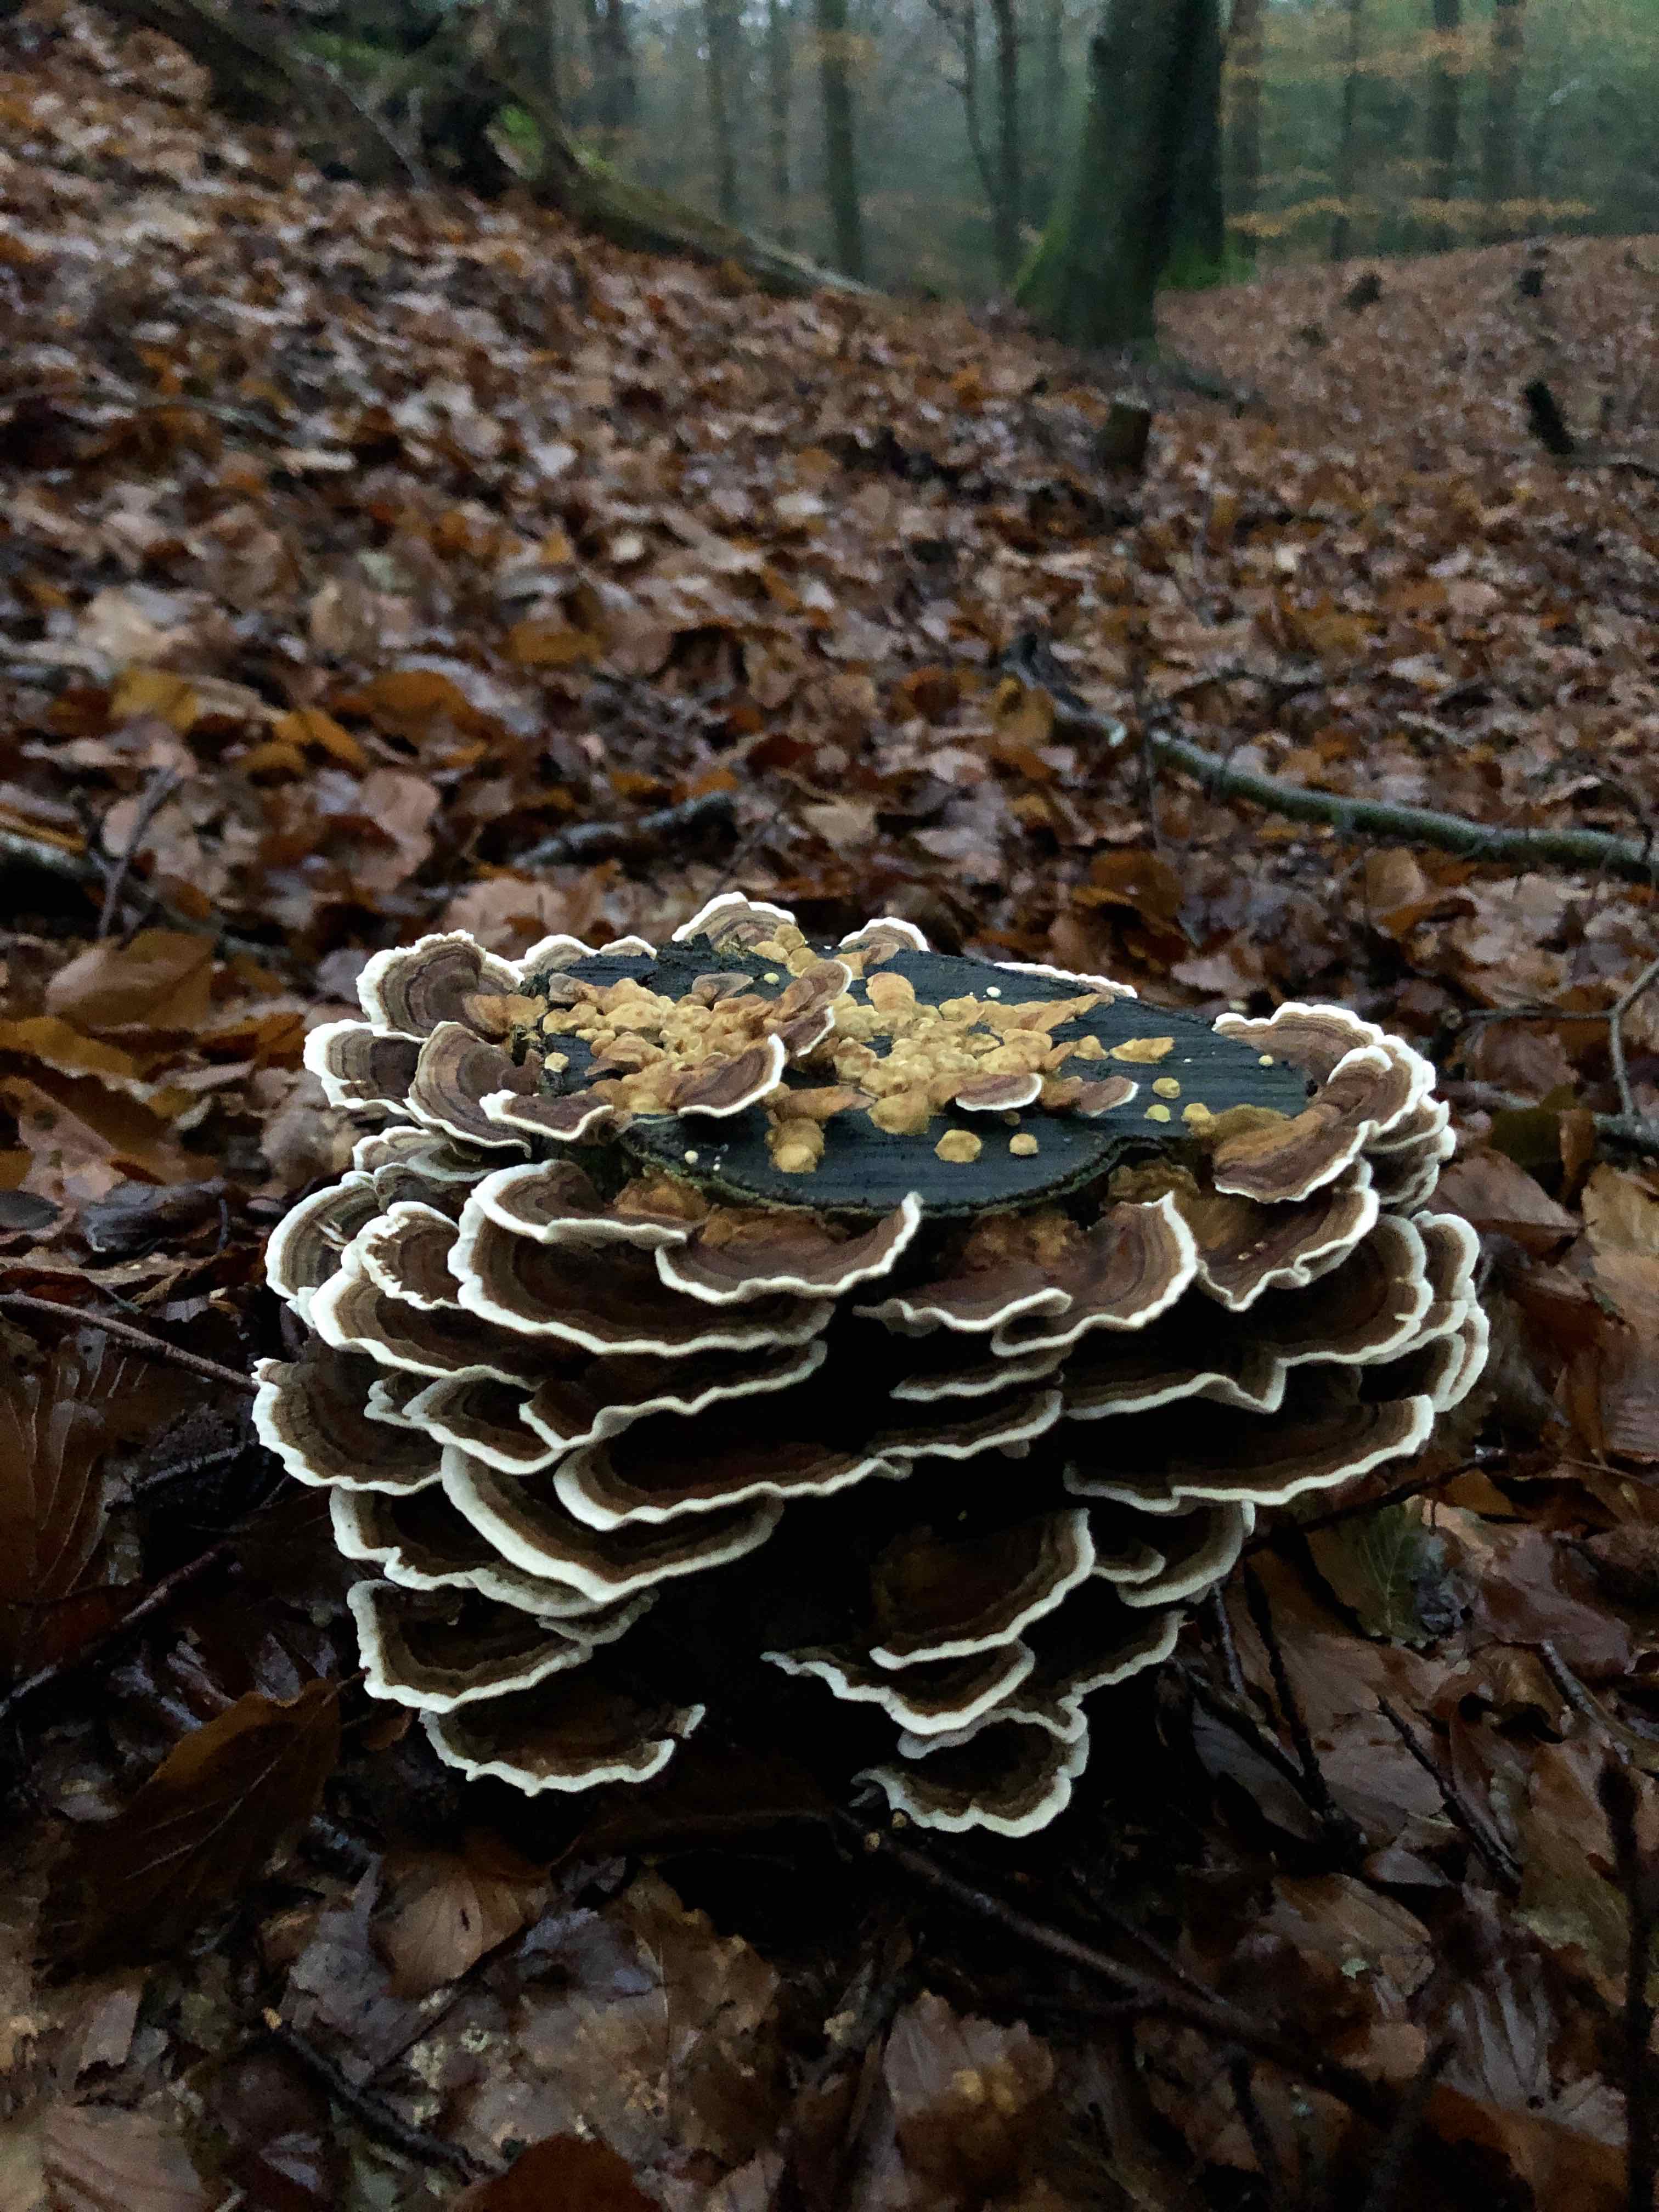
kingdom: Fungi
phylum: Basidiomycota
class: Agaricomycetes
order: Polyporales
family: Polyporaceae
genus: Trametes
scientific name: Trametes versicolor
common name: broget læderporesvamp
